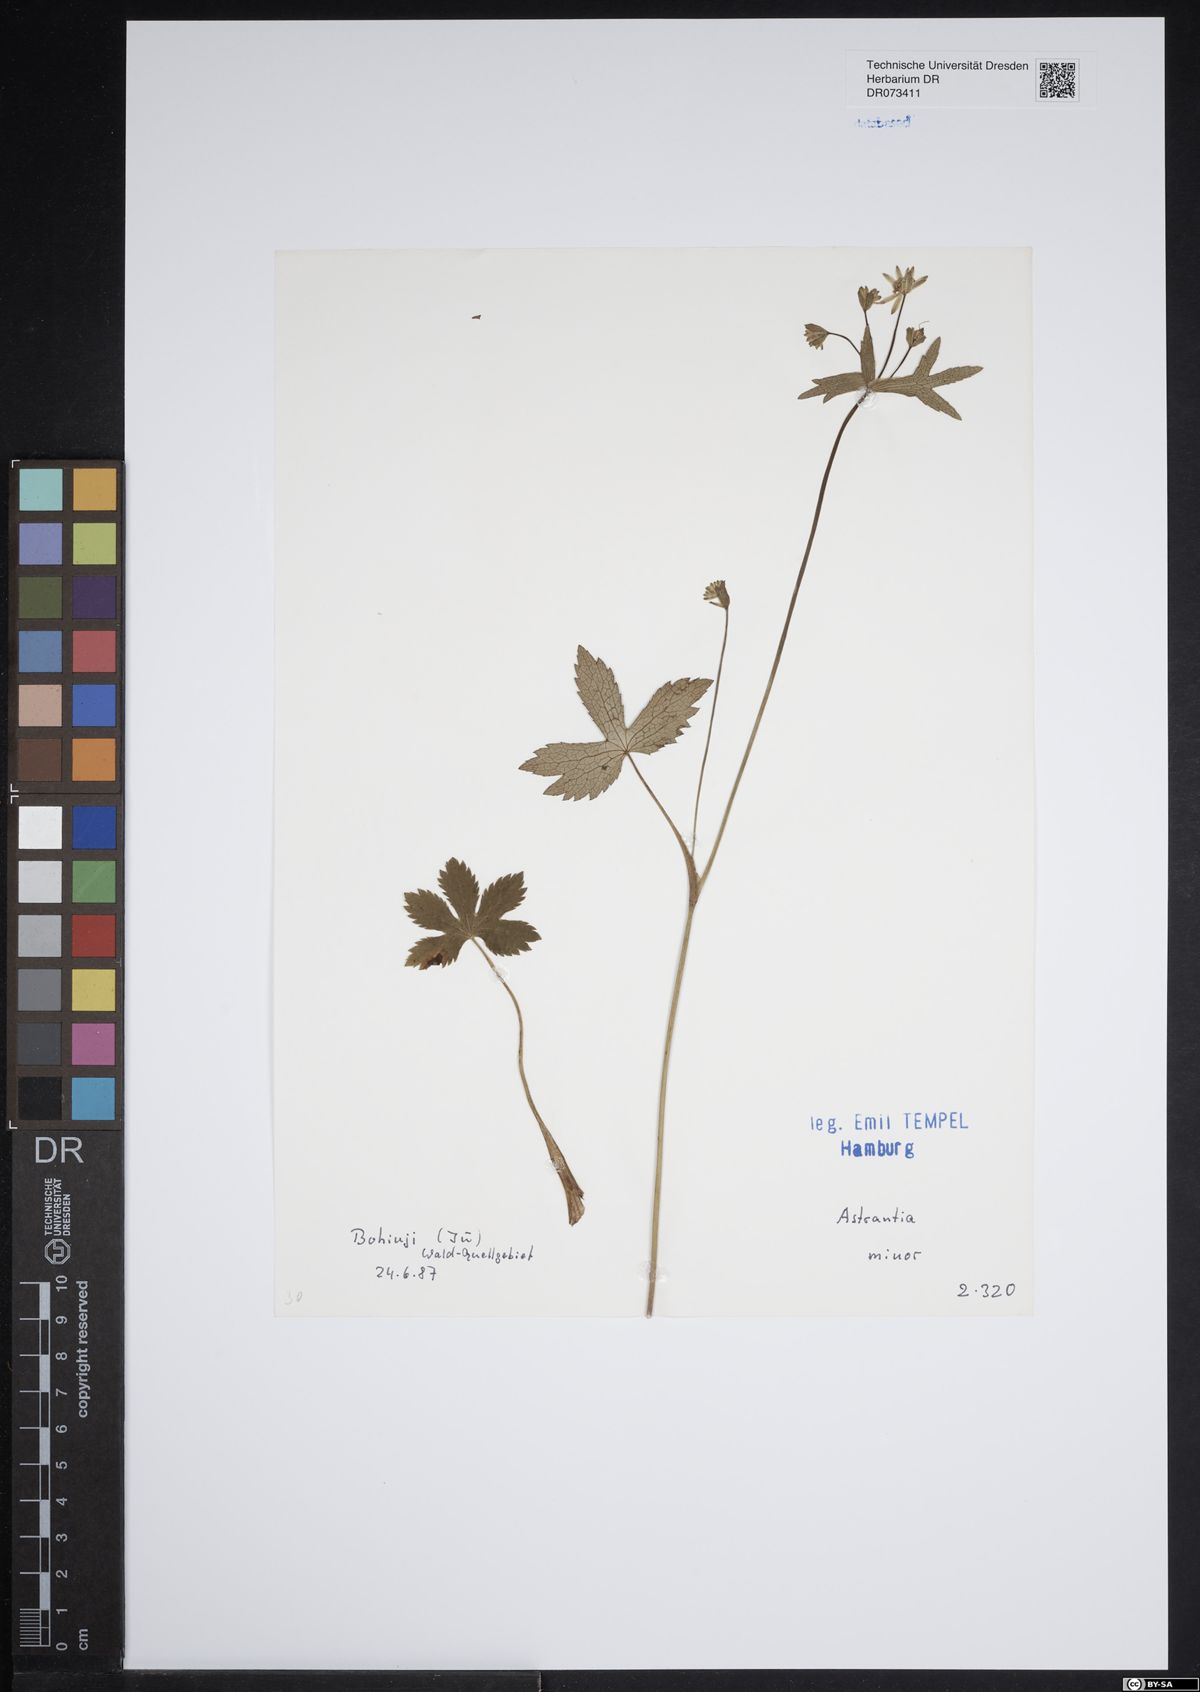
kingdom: Plantae
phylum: Tracheophyta
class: Magnoliopsida
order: Apiales
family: Apiaceae
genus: Astrantia
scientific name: Astrantia minor
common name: Lesser masterwort
